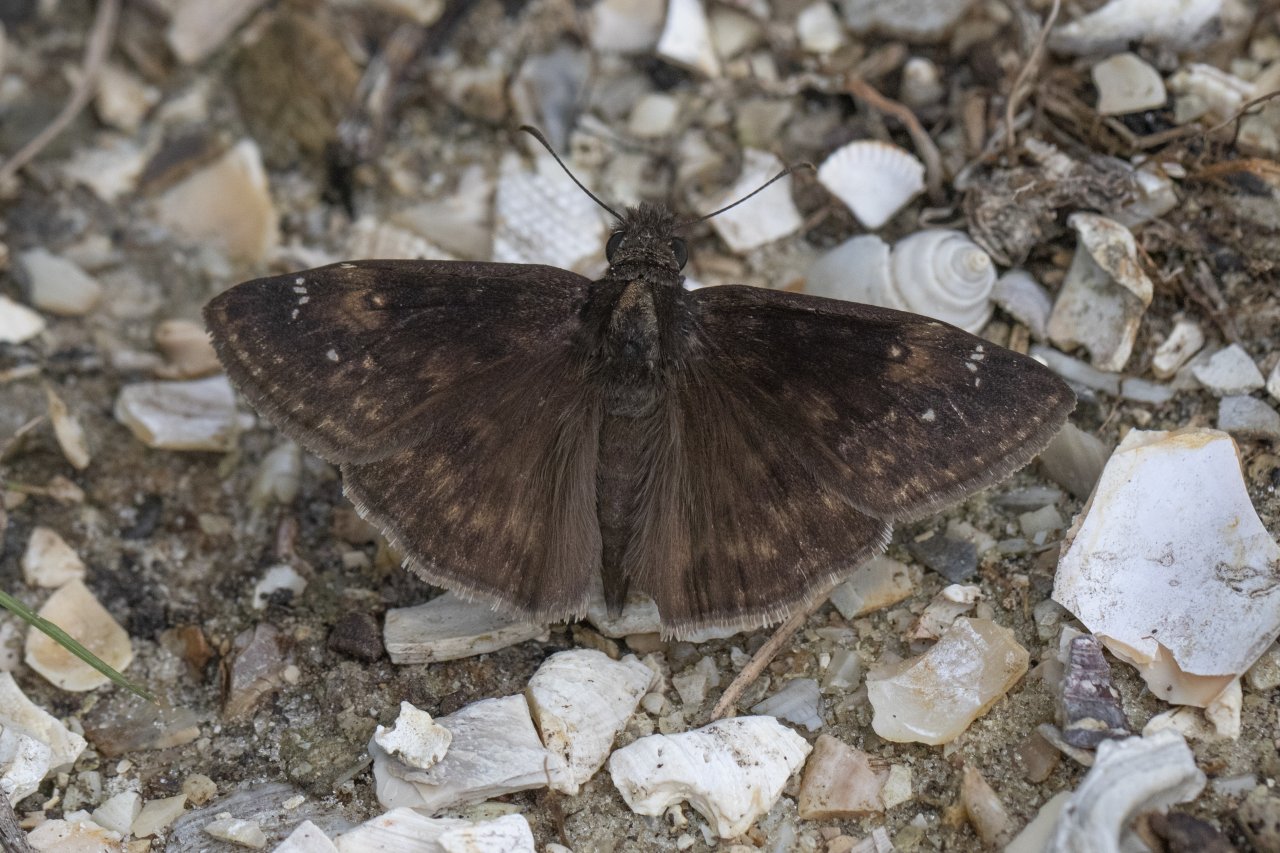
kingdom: Animalia
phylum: Arthropoda
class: Insecta
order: Lepidoptera
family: Hesperiidae
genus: Gesta
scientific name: Gesta
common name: Horace's Duskywing
